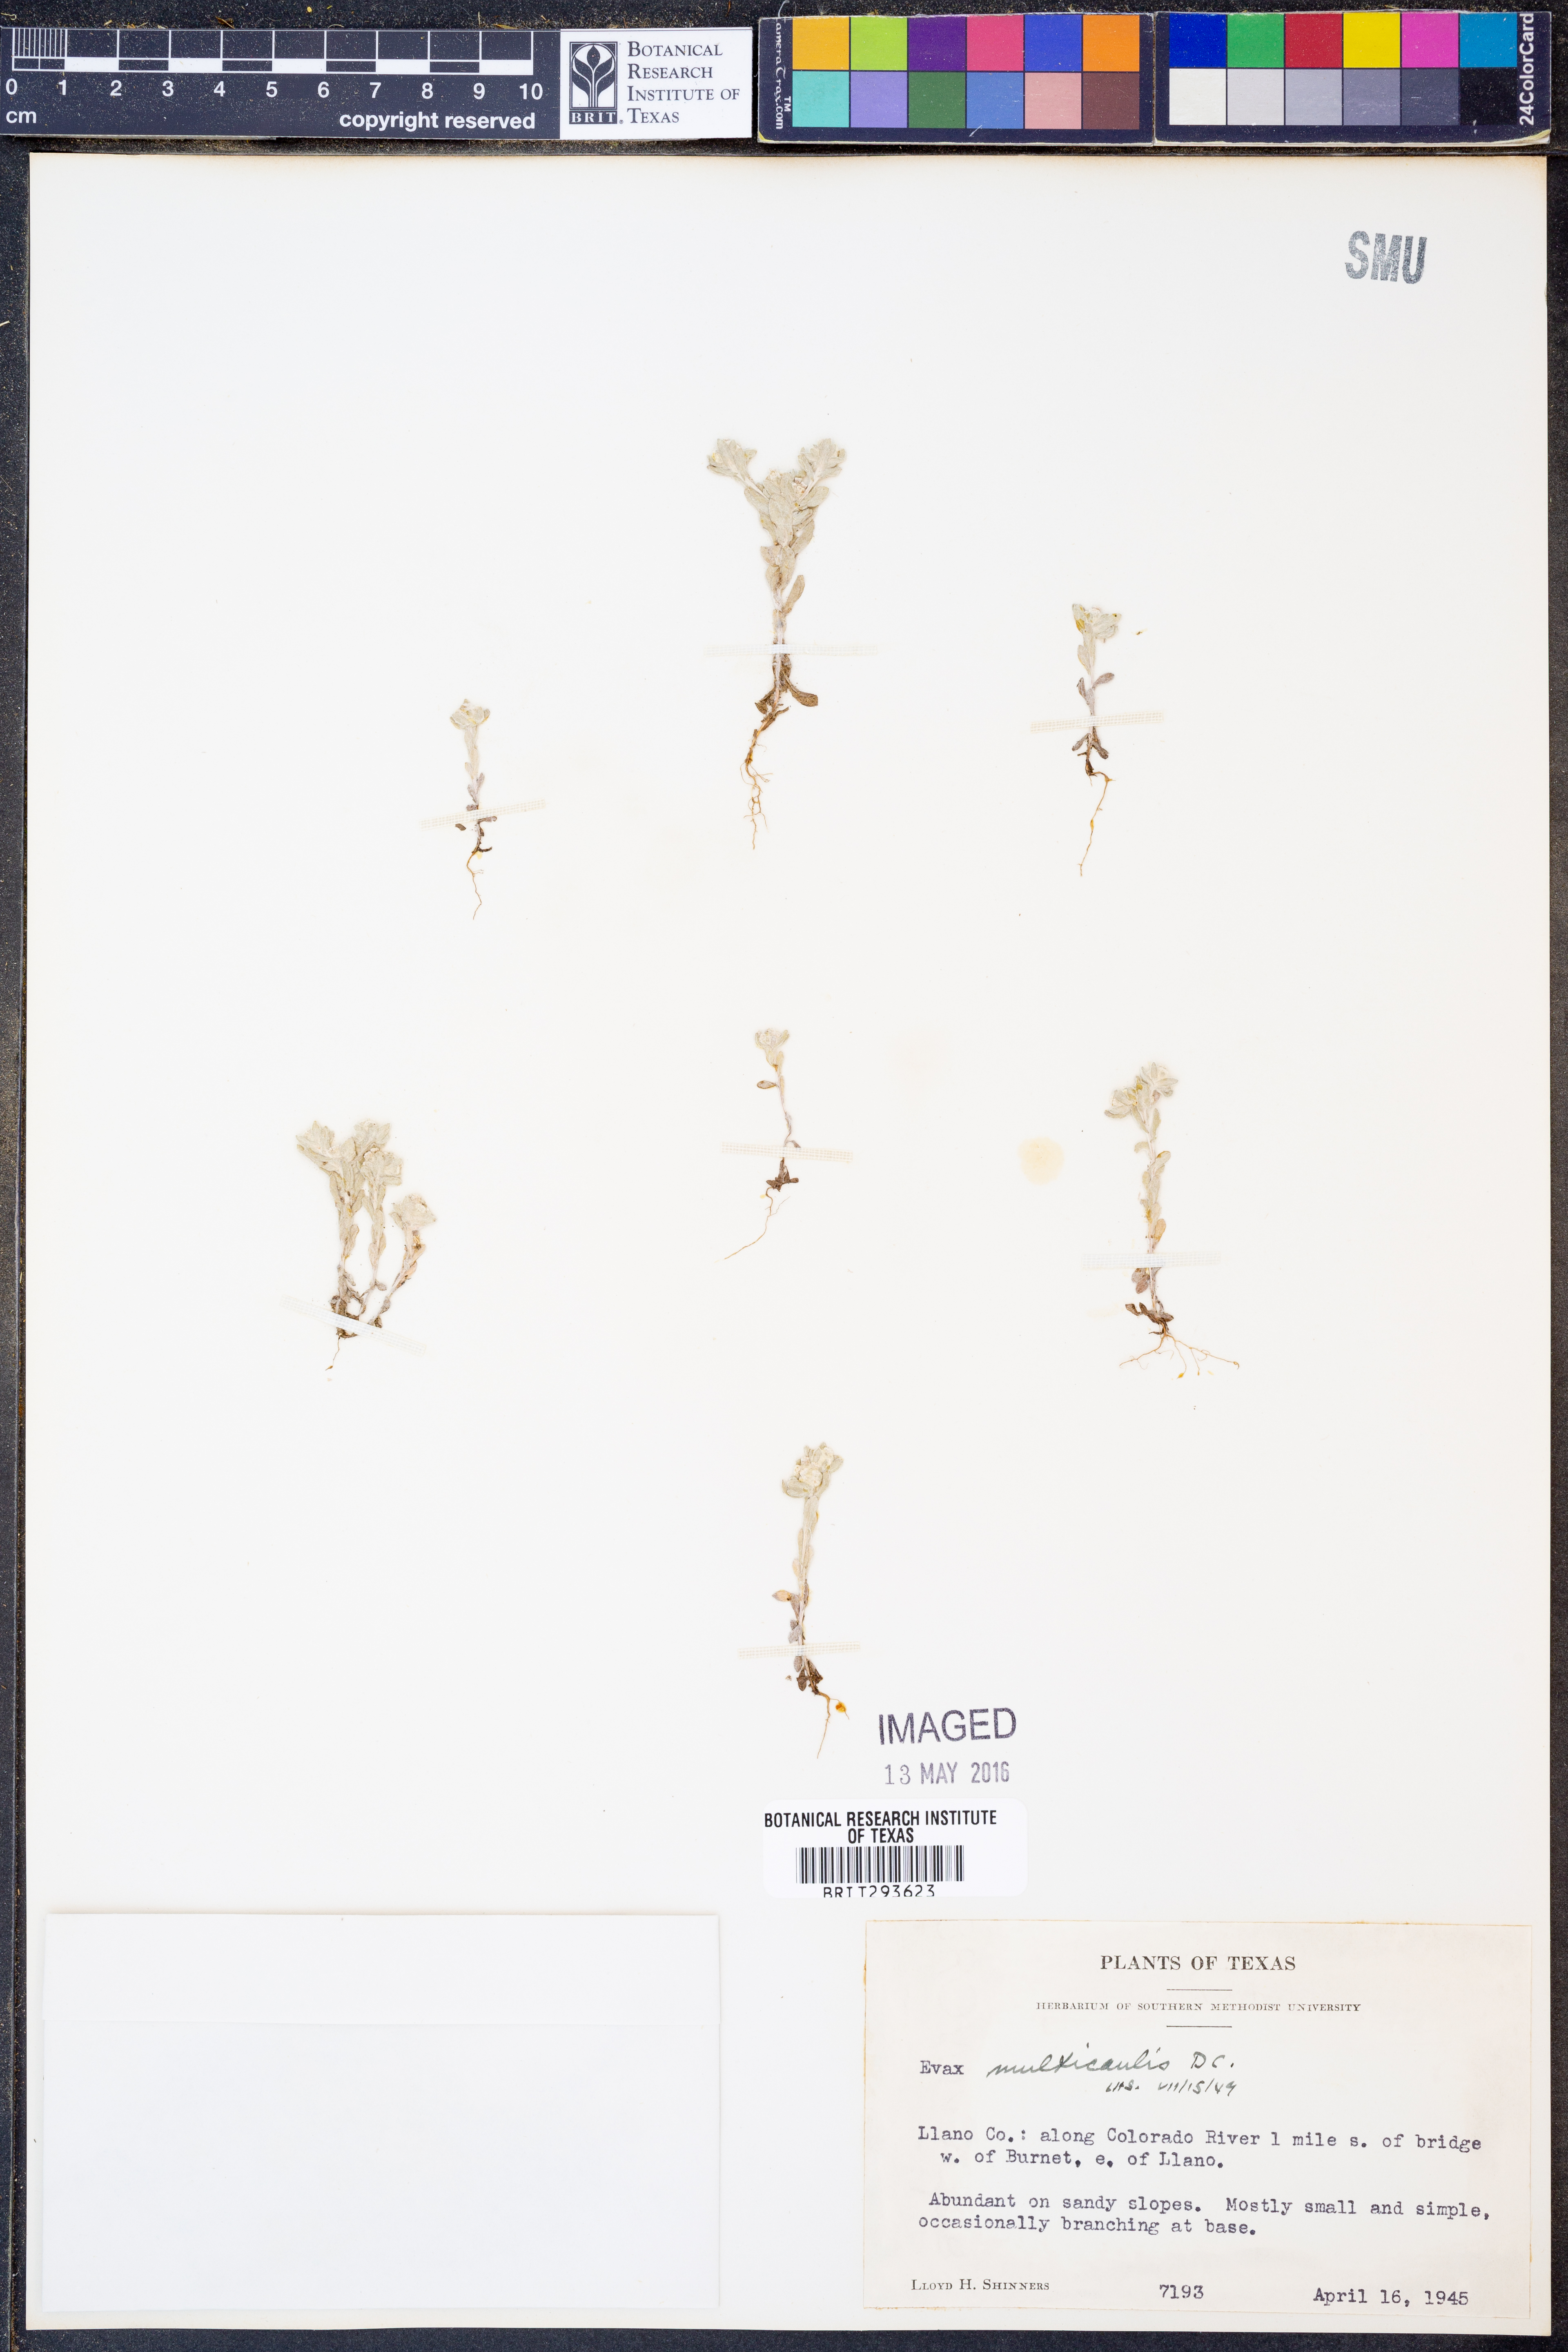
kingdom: Plantae
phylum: Tracheophyta
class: Magnoliopsida
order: Asterales
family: Asteraceae
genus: Diaperia
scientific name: Diaperia verna
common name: Many-stem rabbit-tobacco
